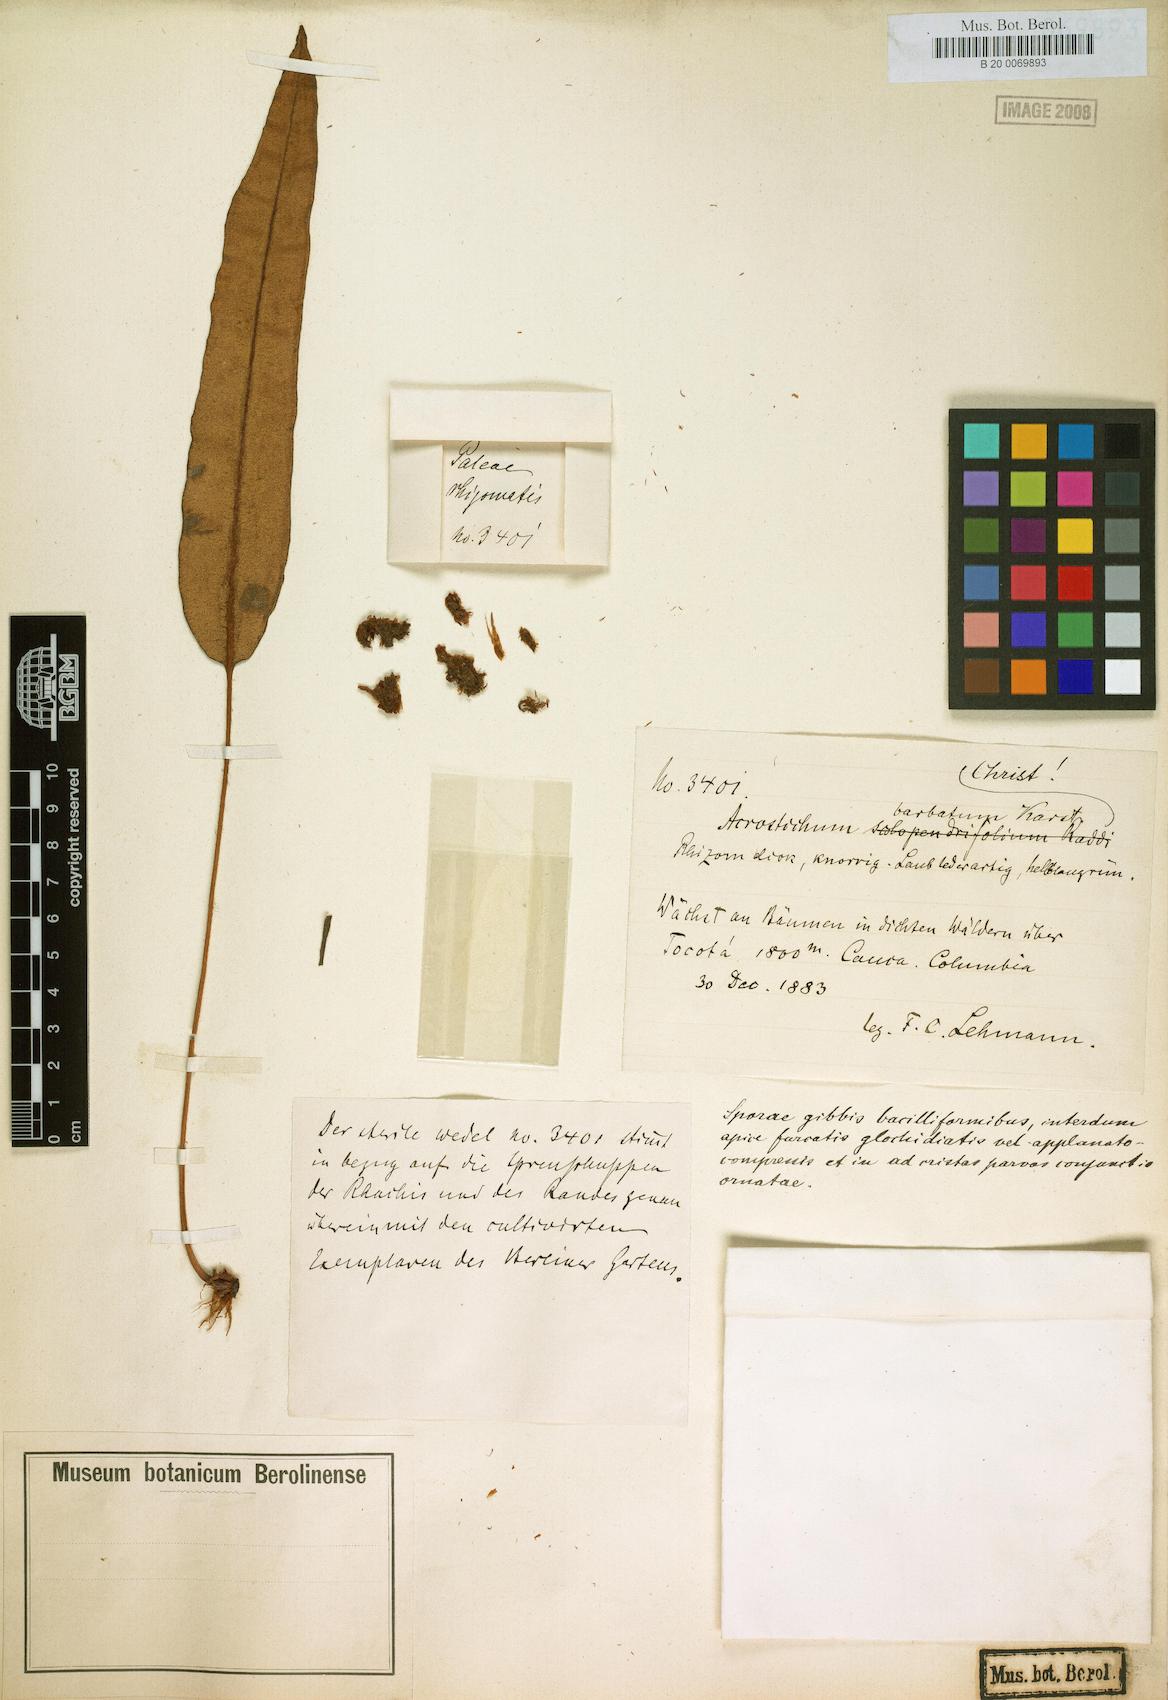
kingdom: Plantae
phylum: Tracheophyta
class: Polypodiopsida
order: Polypodiales
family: Dryopteridaceae
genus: Elaphoglossum
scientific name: Elaphoglossum barbatum
